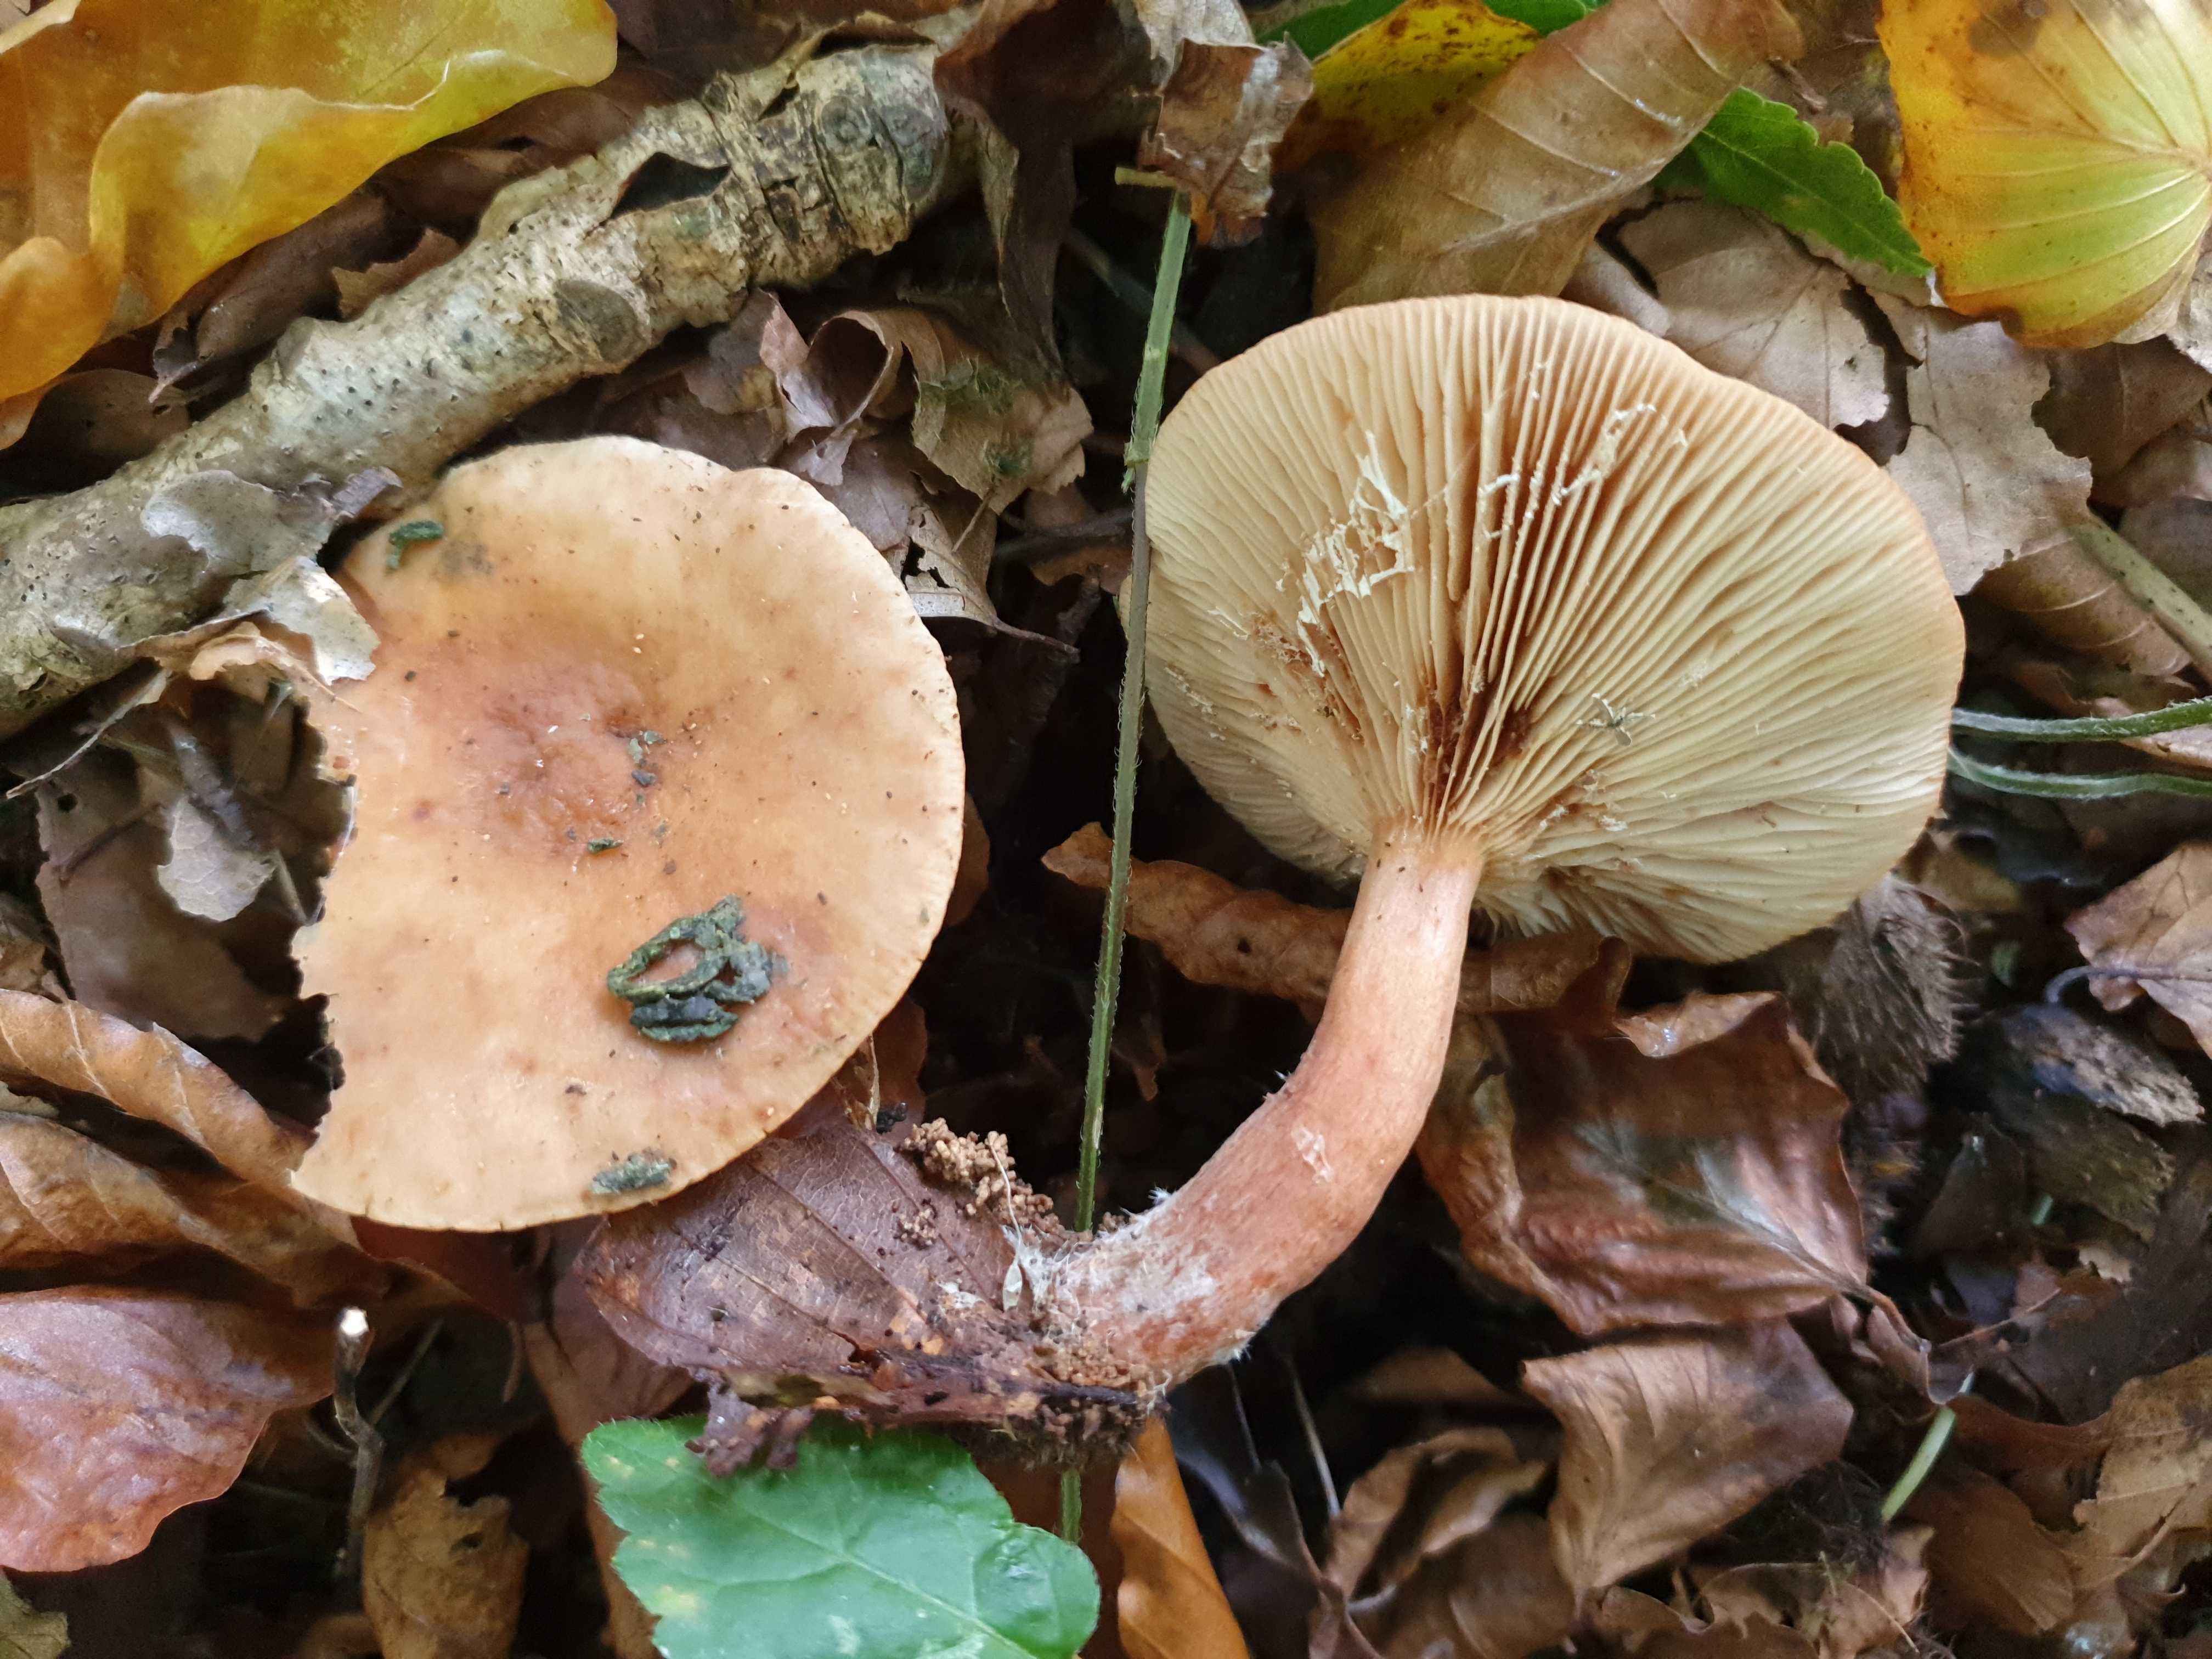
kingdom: Fungi
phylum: Basidiomycota
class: Agaricomycetes
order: Russulales
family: Russulaceae
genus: Lactarius
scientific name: Lactarius subdulcis
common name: sødlig mælkehat
